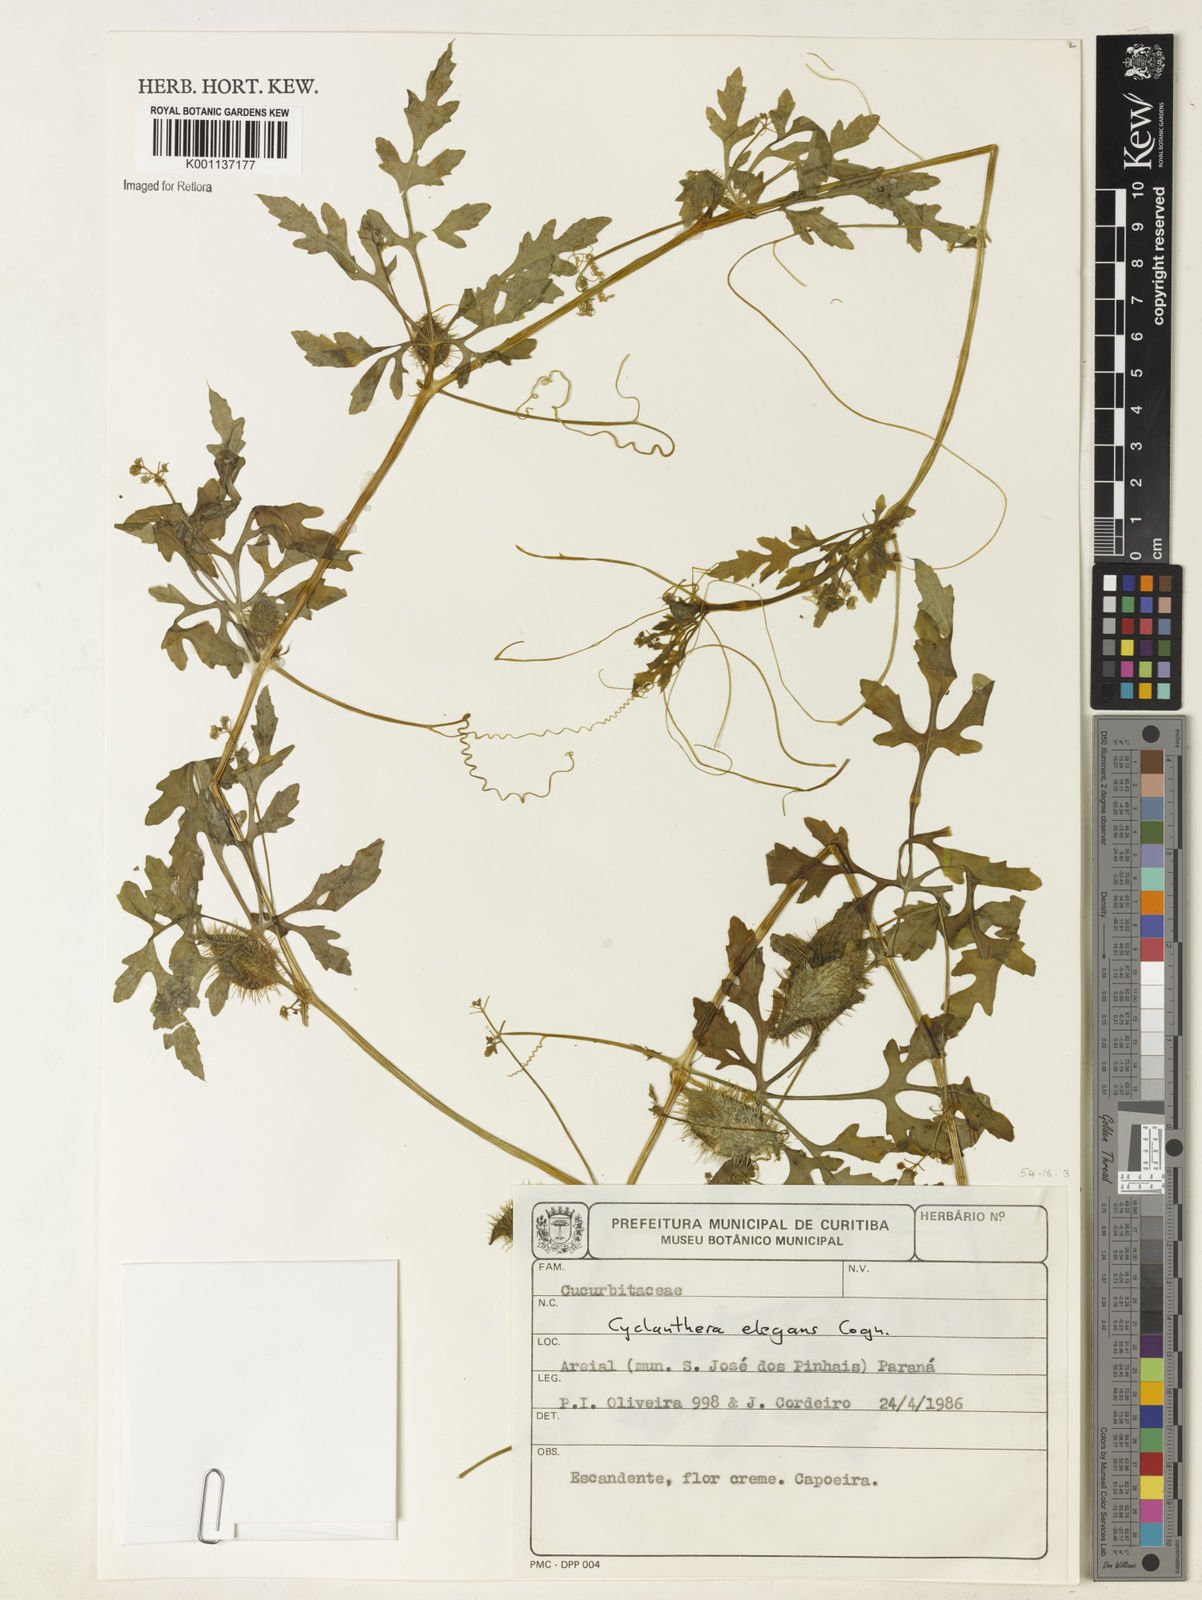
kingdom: Plantae
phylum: Tracheophyta
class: Magnoliopsida
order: Cucurbitales
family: Cucurbitaceae
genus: Cyclanthera
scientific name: Cyclanthera tenuisepala
